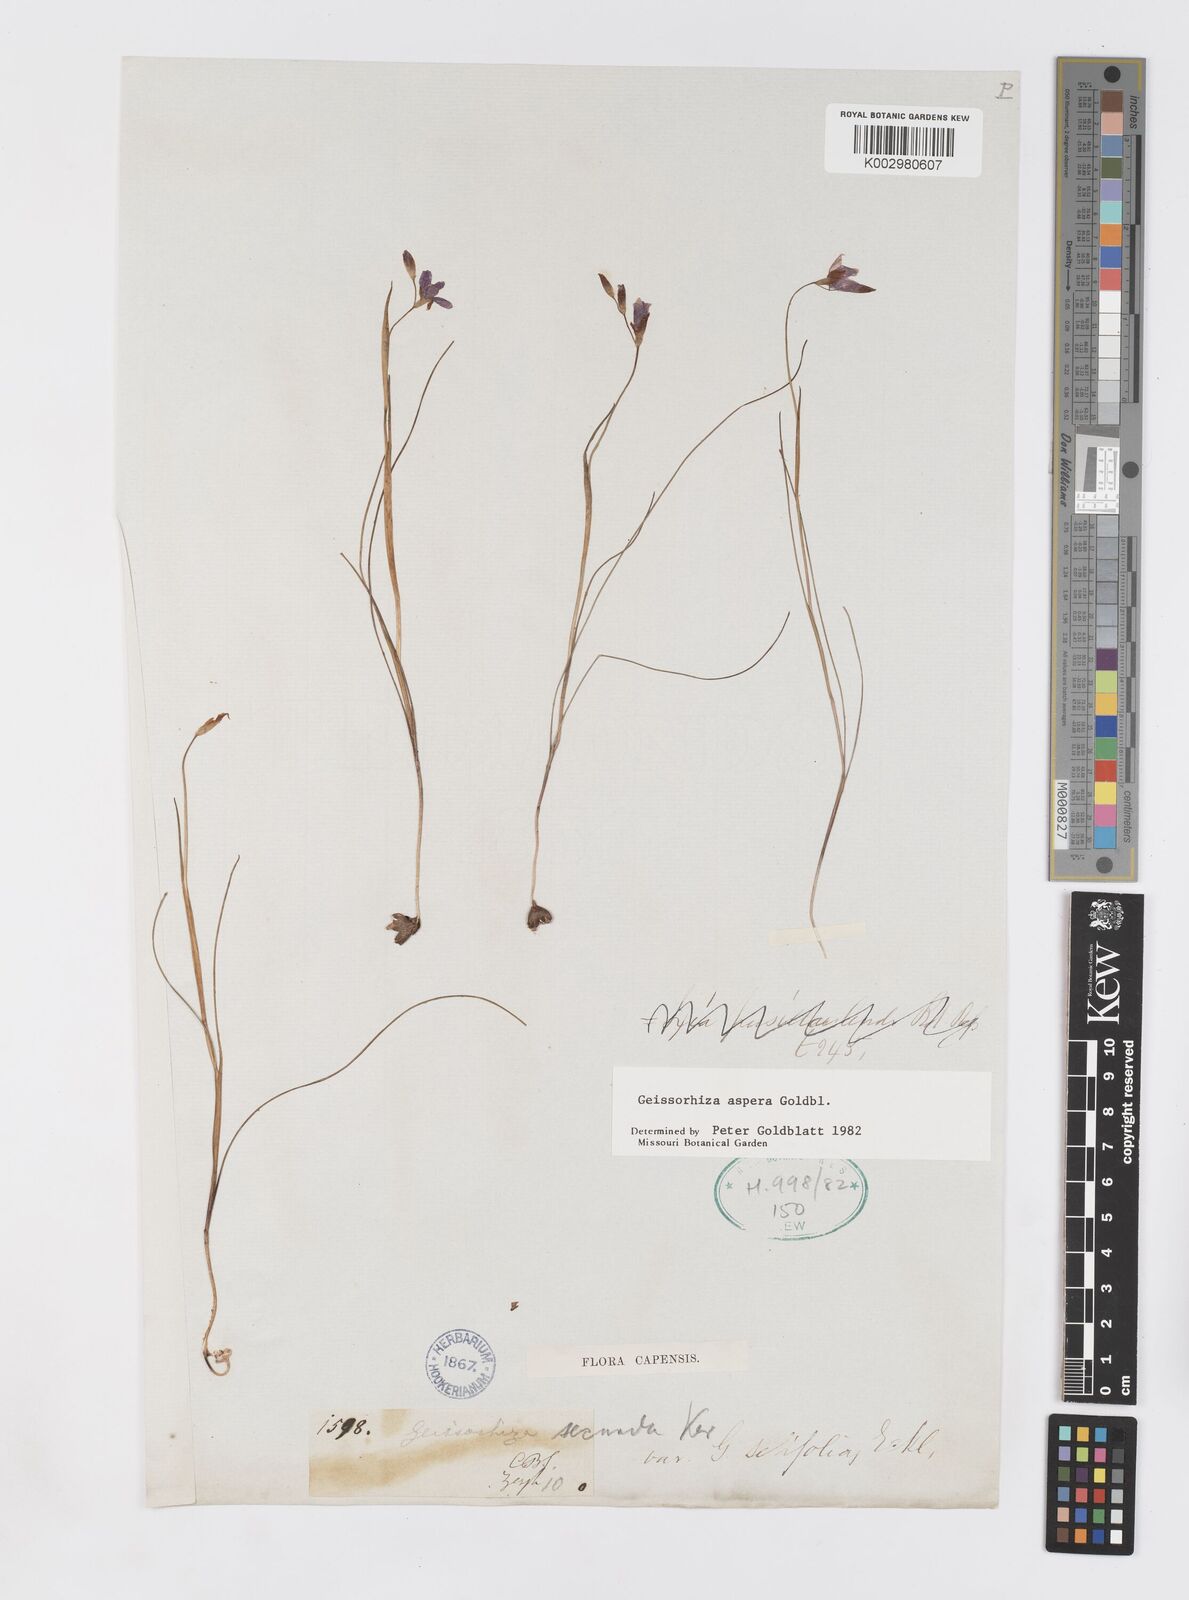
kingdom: Plantae
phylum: Tracheophyta
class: Liliopsida
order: Asparagales
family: Iridaceae
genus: Geissorhiza
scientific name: Geissorhiza aspera
